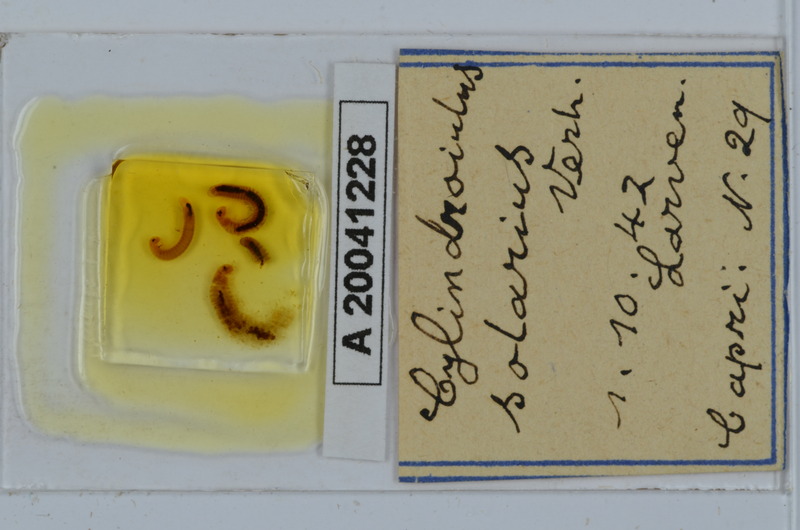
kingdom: Animalia
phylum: Arthropoda
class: Diplopoda
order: Julida
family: Julidae
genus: Cylindroiulus
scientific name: Cylindroiulus solarius
